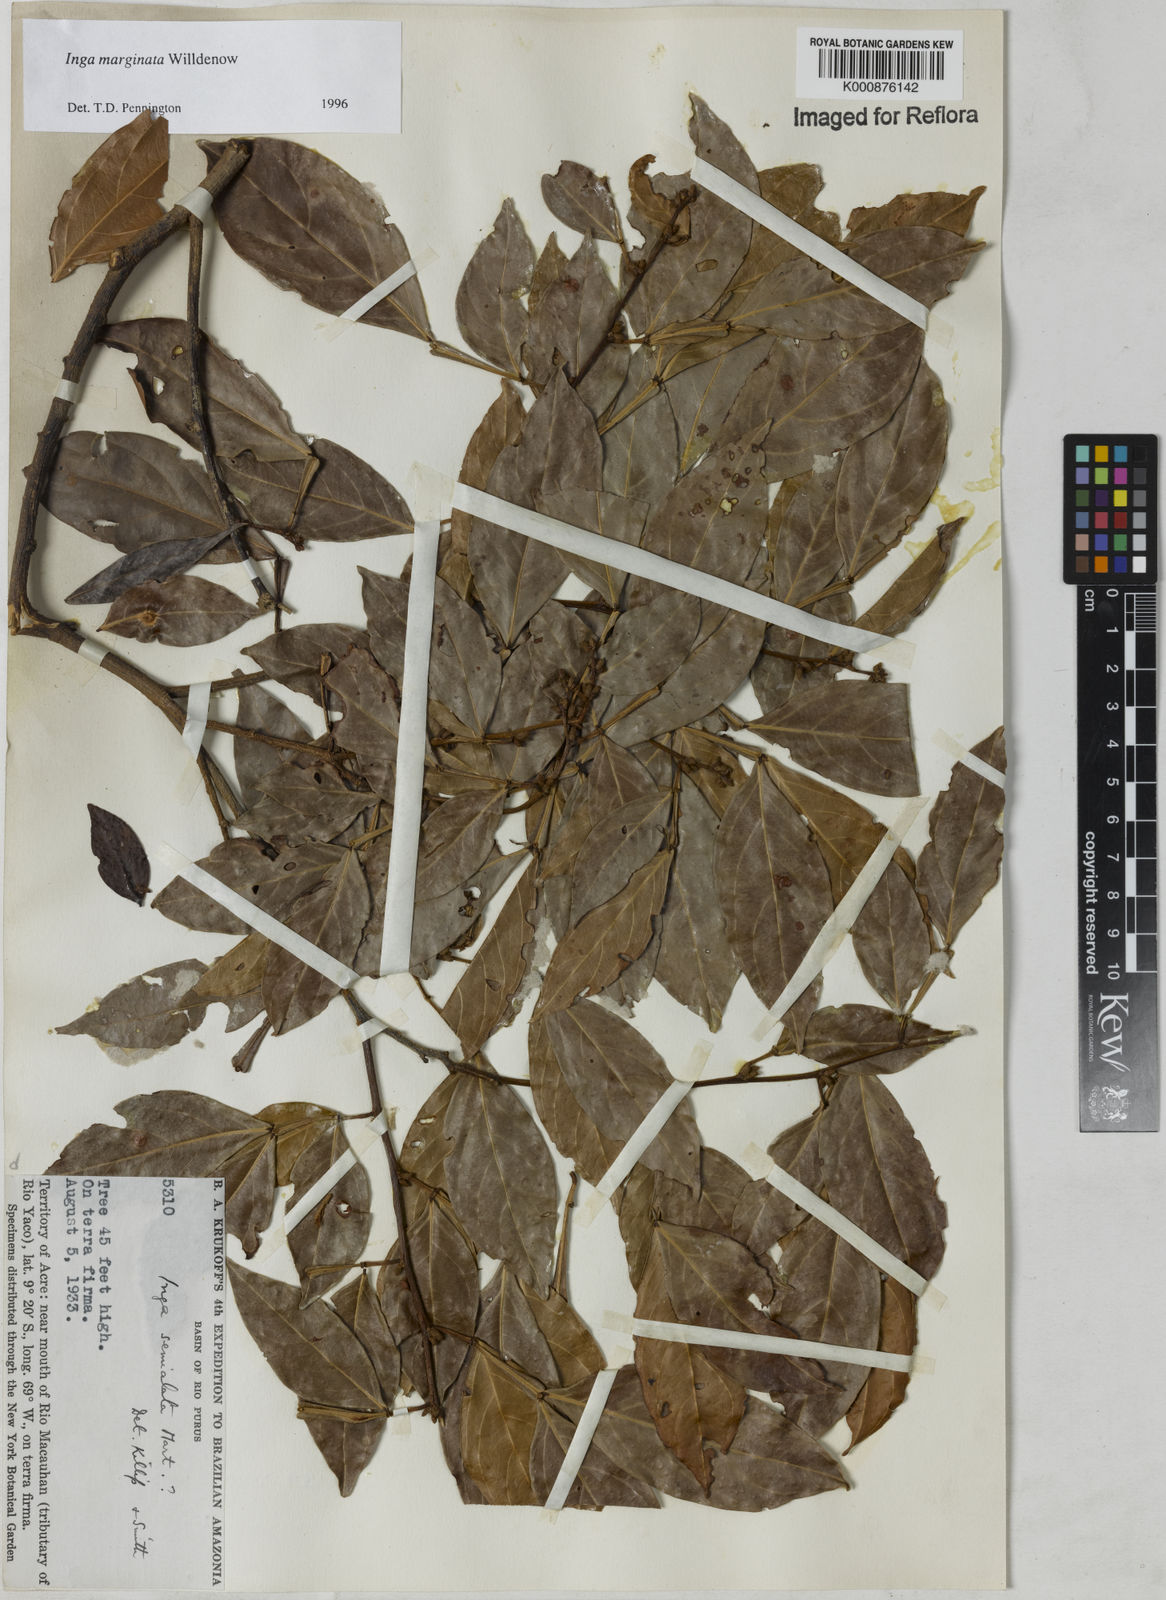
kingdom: Plantae
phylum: Tracheophyta
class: Magnoliopsida
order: Fabales
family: Fabaceae
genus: Inga
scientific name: Inga marginata
